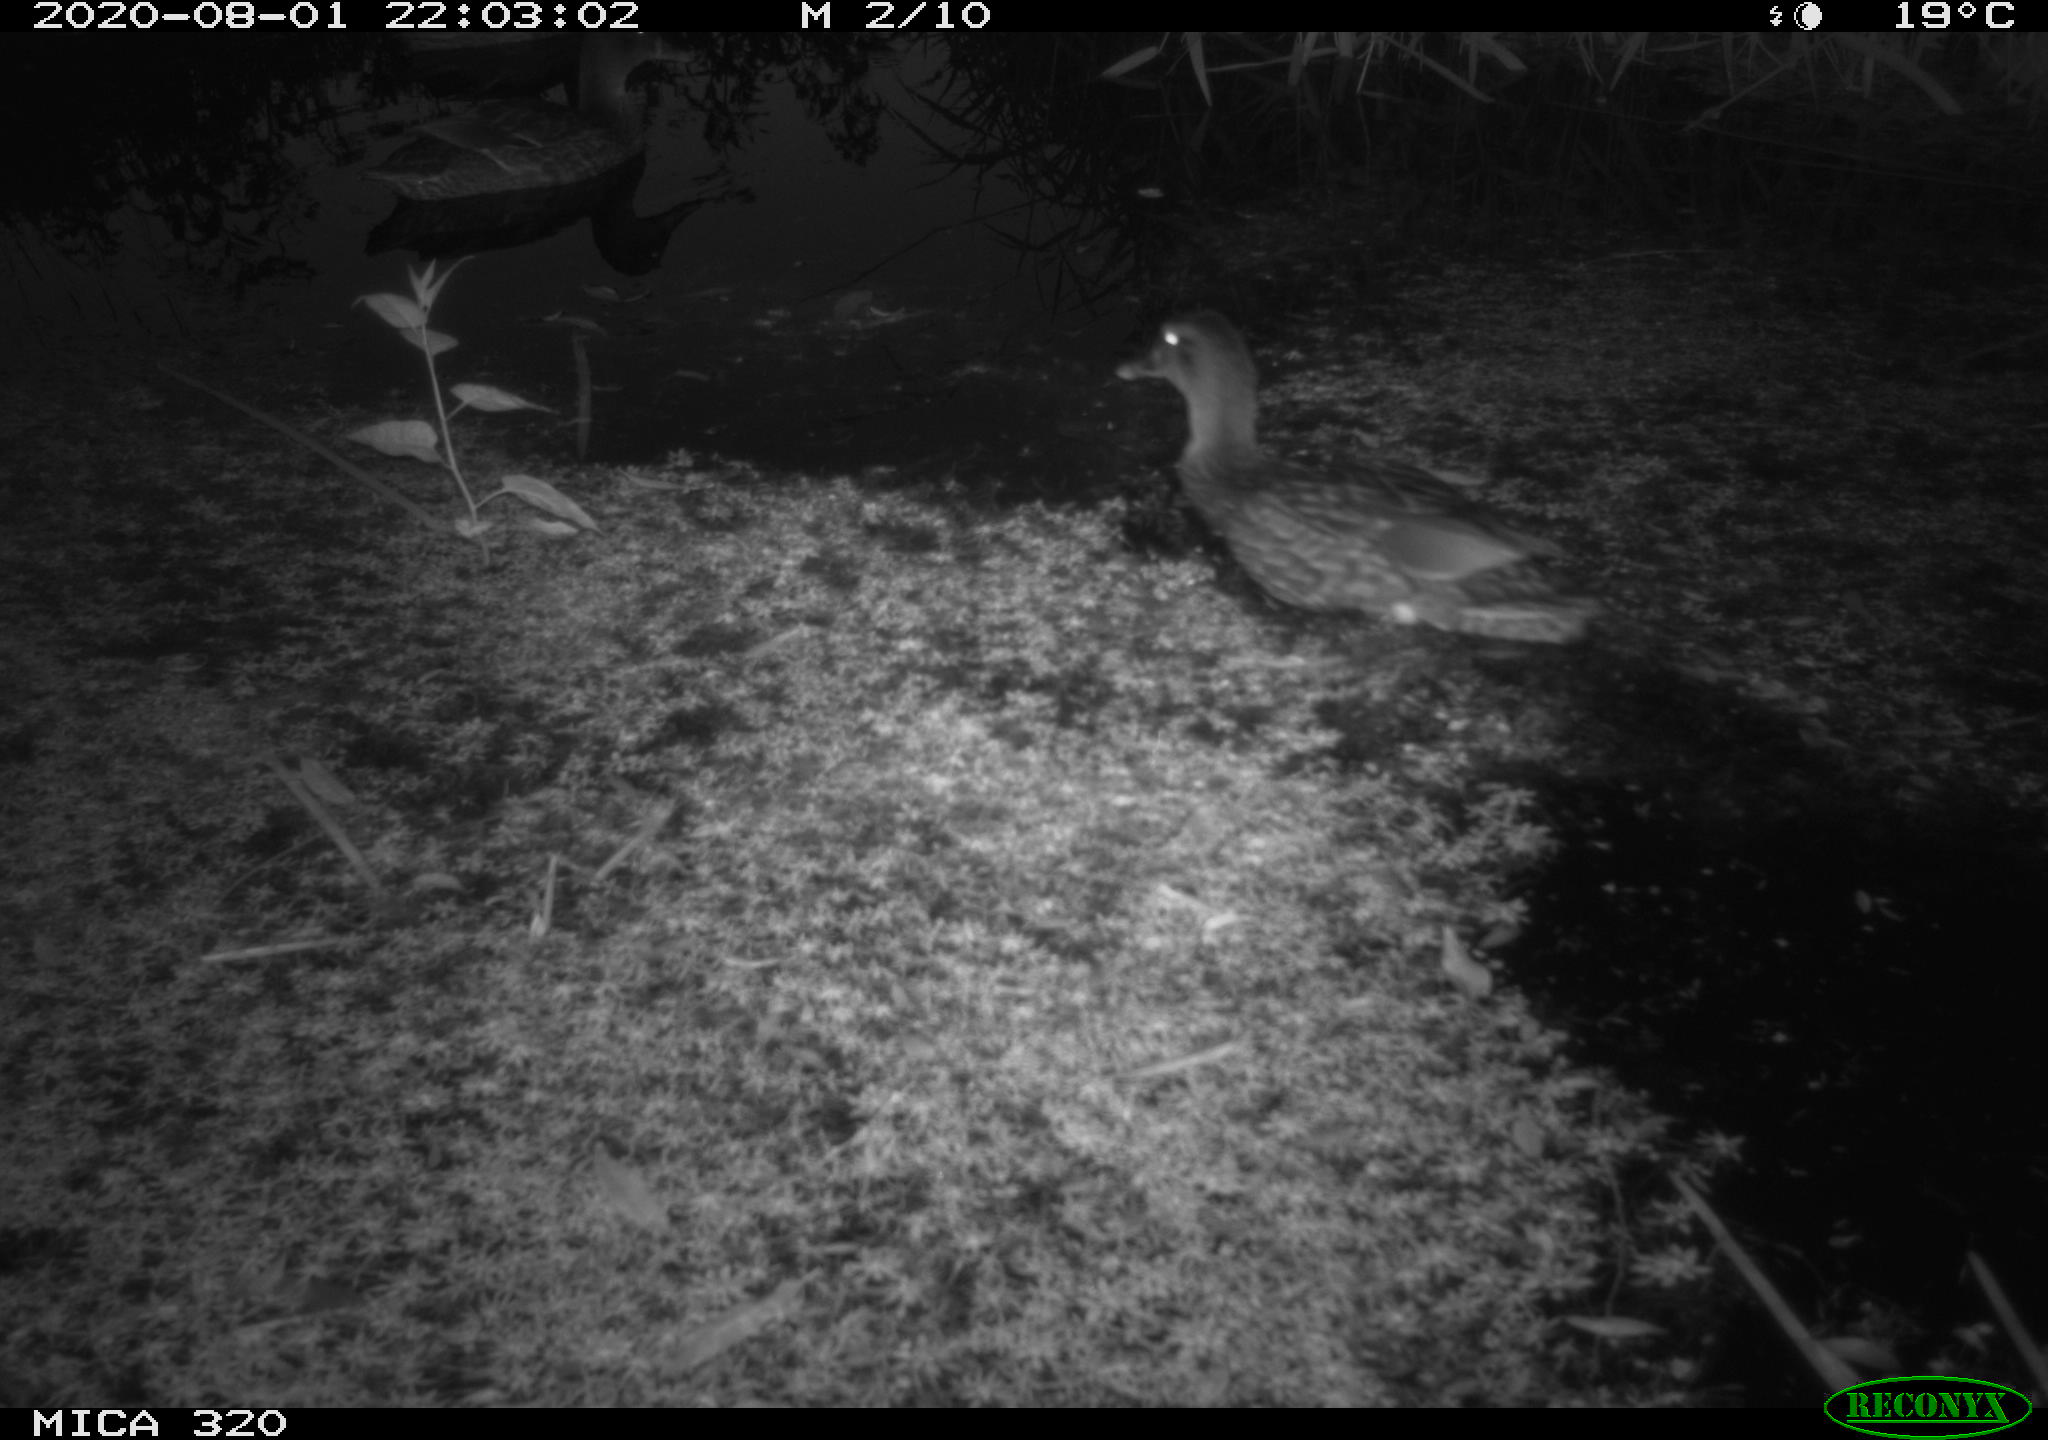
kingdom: Animalia
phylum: Chordata
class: Aves
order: Anseriformes
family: Anatidae
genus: Anas
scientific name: Anas platyrhynchos
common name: Mallard
